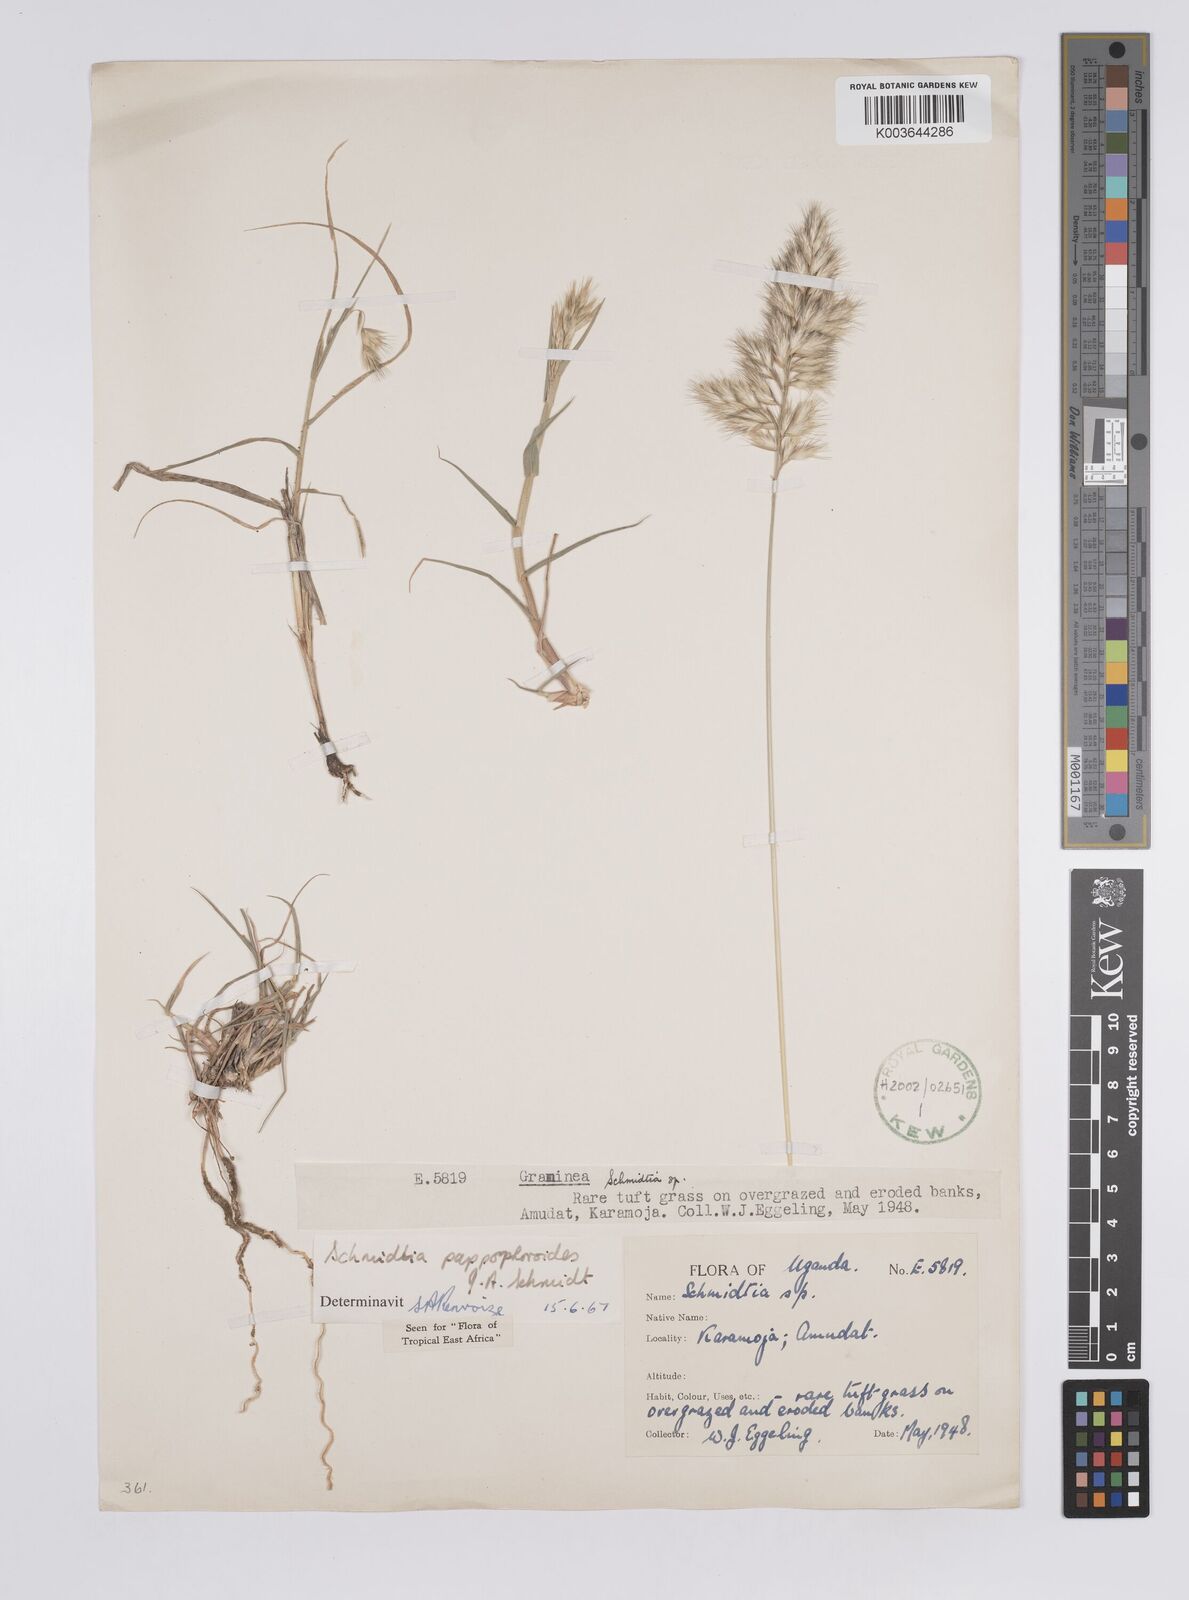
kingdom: Plantae
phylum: Tracheophyta
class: Liliopsida
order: Poales
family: Poaceae
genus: Schmidtia
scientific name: Schmidtia pappophoroides
